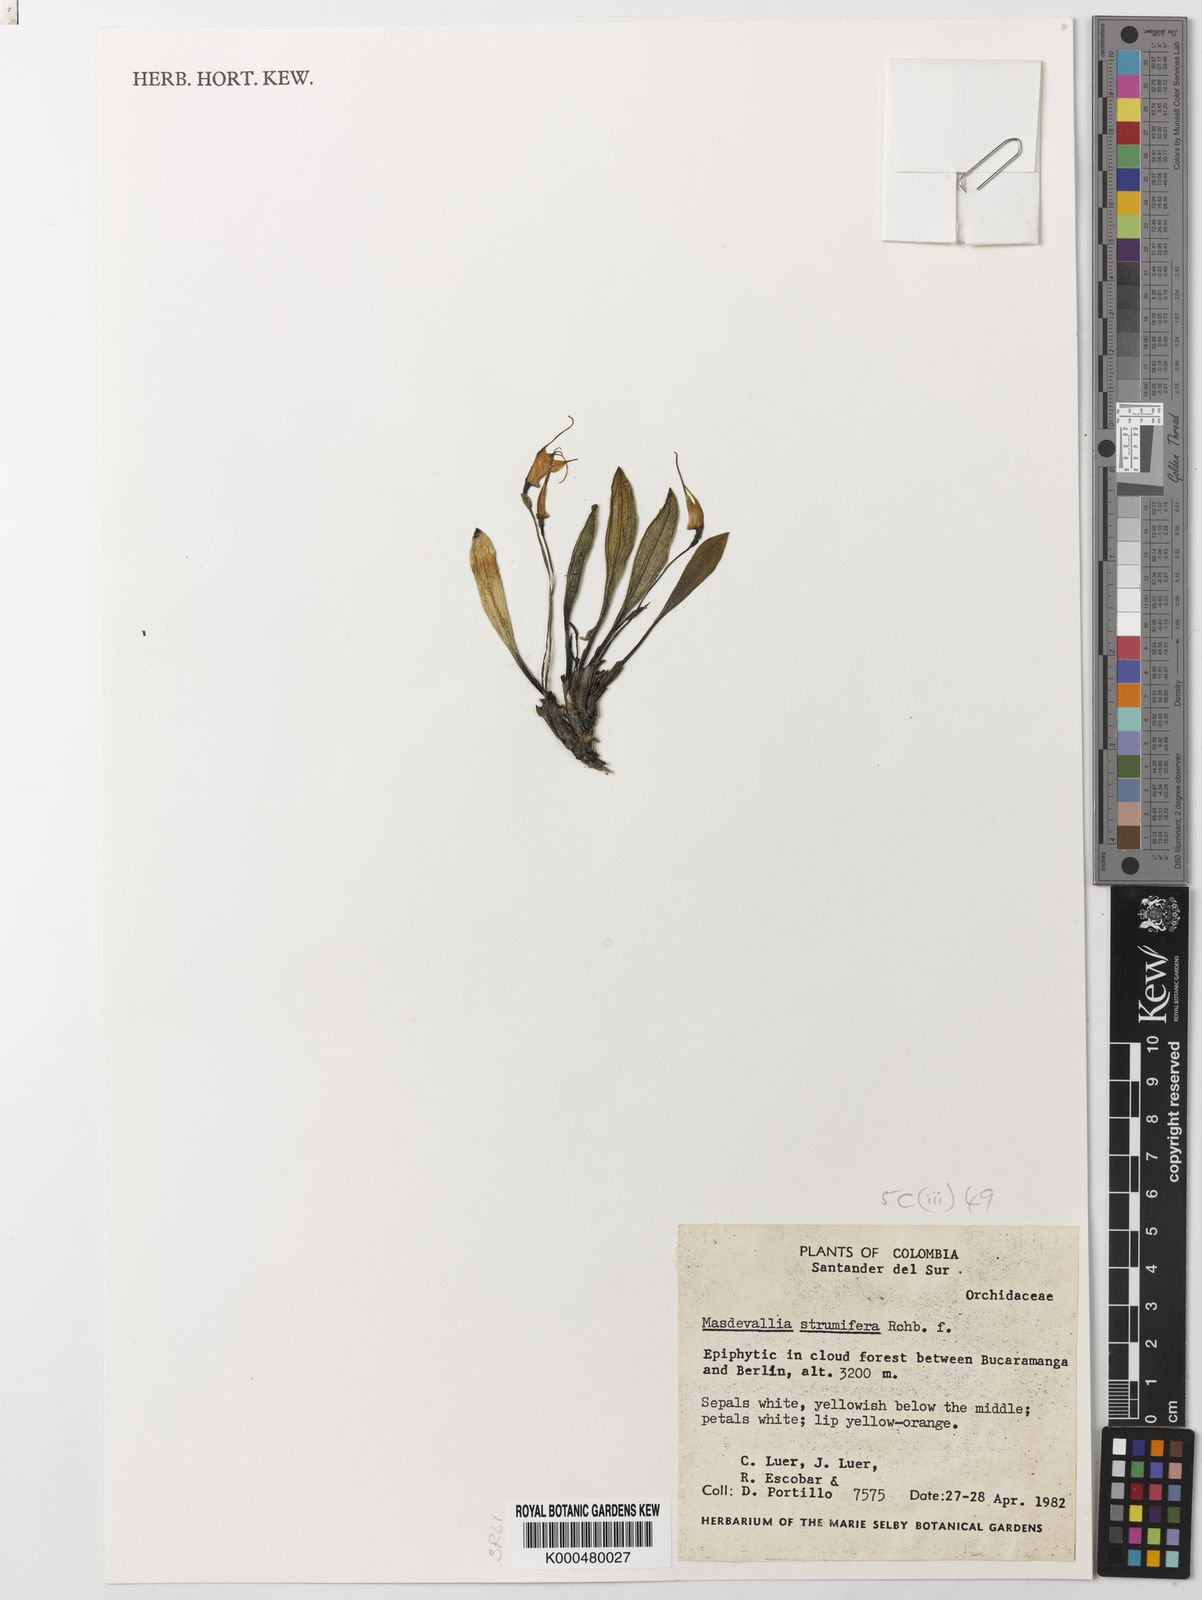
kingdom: Plantae
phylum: Tracheophyta
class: Liliopsida
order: Asparagales
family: Orchidaceae
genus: Masdevallia
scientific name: Masdevallia strumifera
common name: Goiter carrying masdevallia
